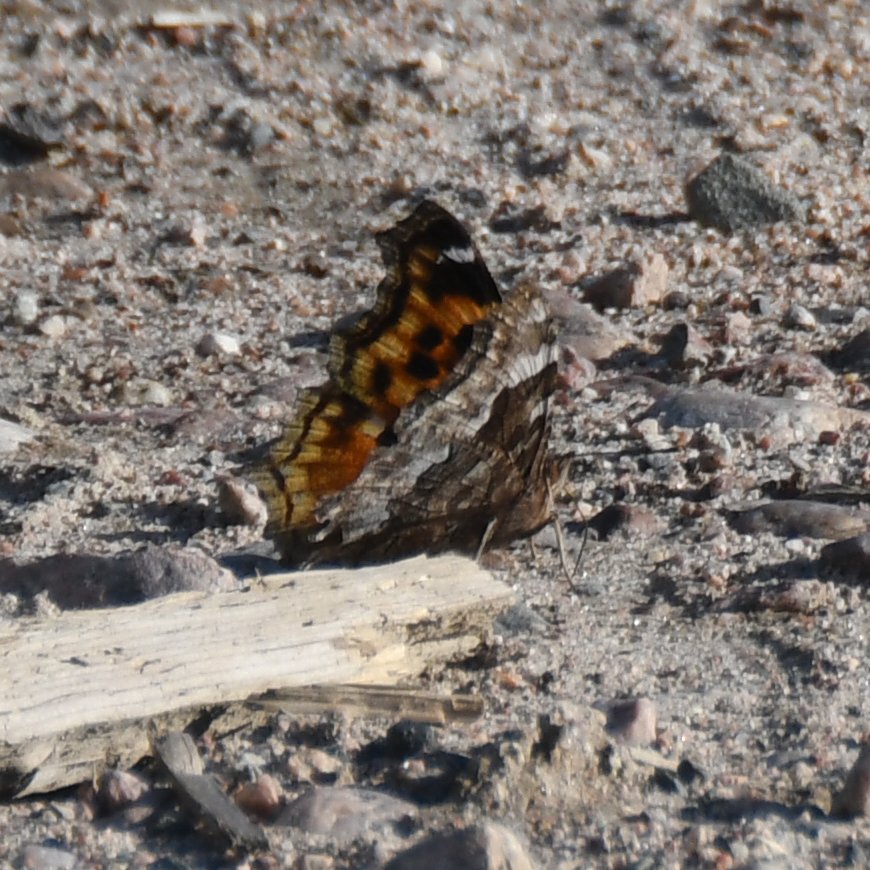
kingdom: Animalia
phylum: Arthropoda
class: Insecta
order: Lepidoptera
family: Nymphalidae
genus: Polygonia
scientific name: Polygonia vaualbum
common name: Compton Tortoiseshell
